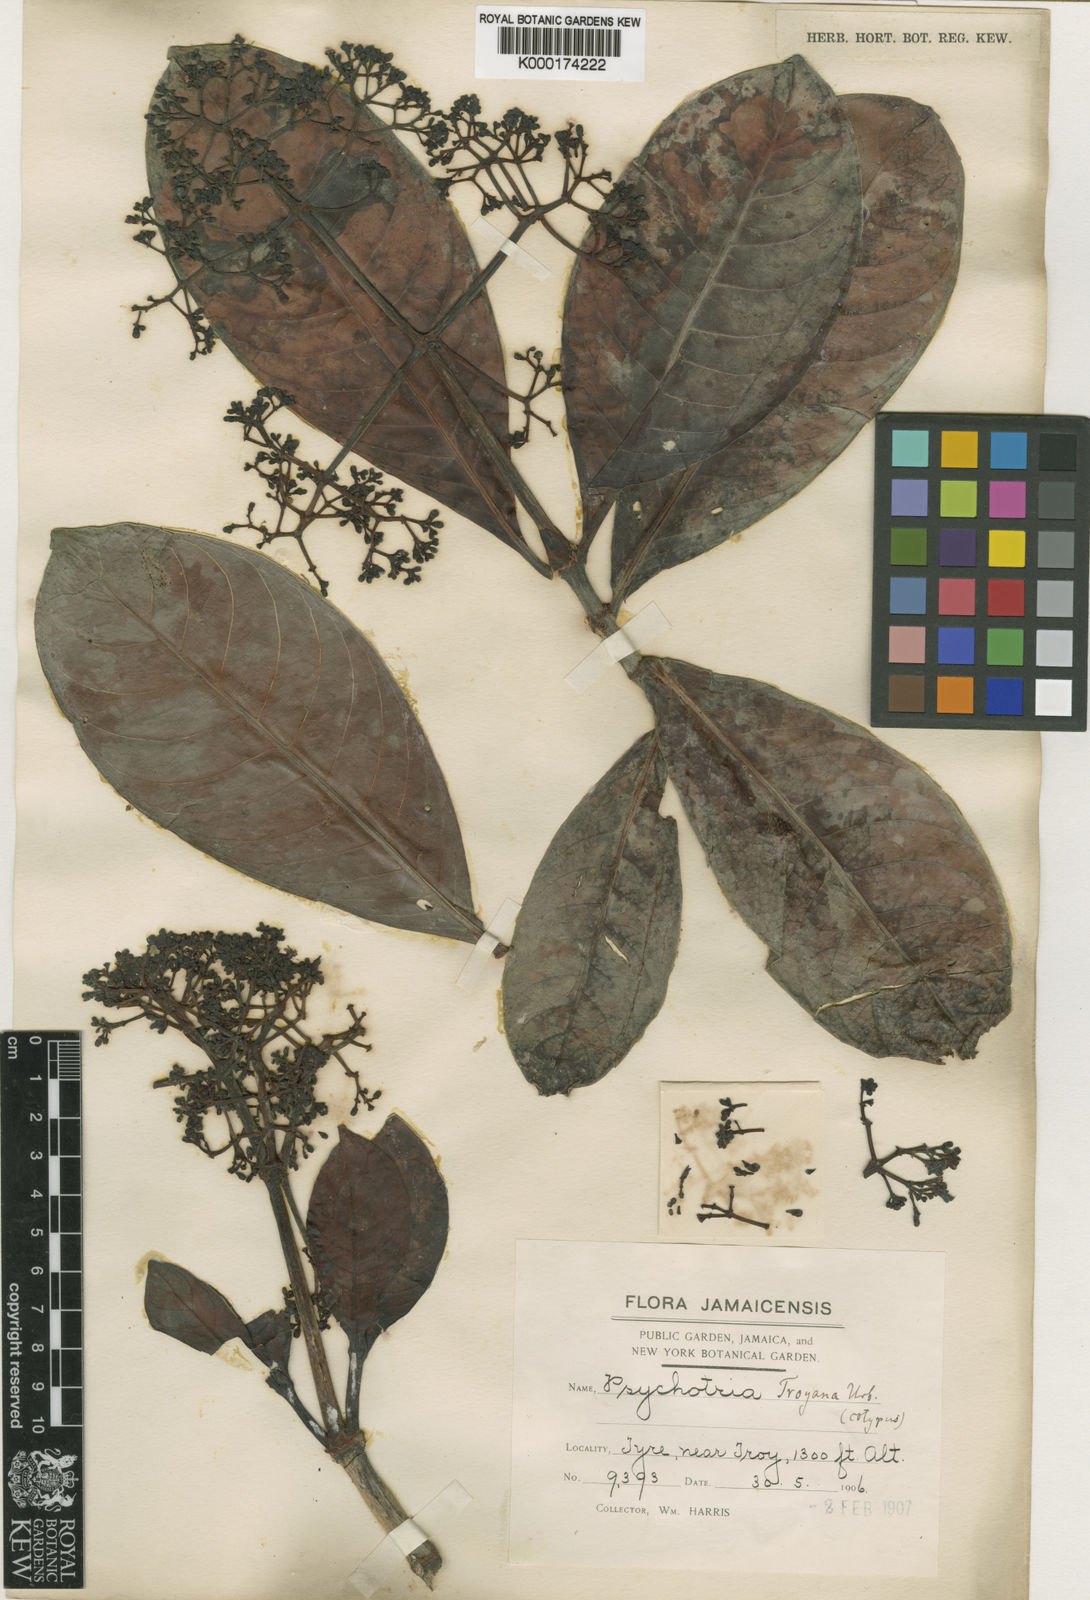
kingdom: Plantae
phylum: Tracheophyta
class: Magnoliopsida
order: Gentianales
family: Rubiaceae
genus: Psychotria
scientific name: Psychotria dura
